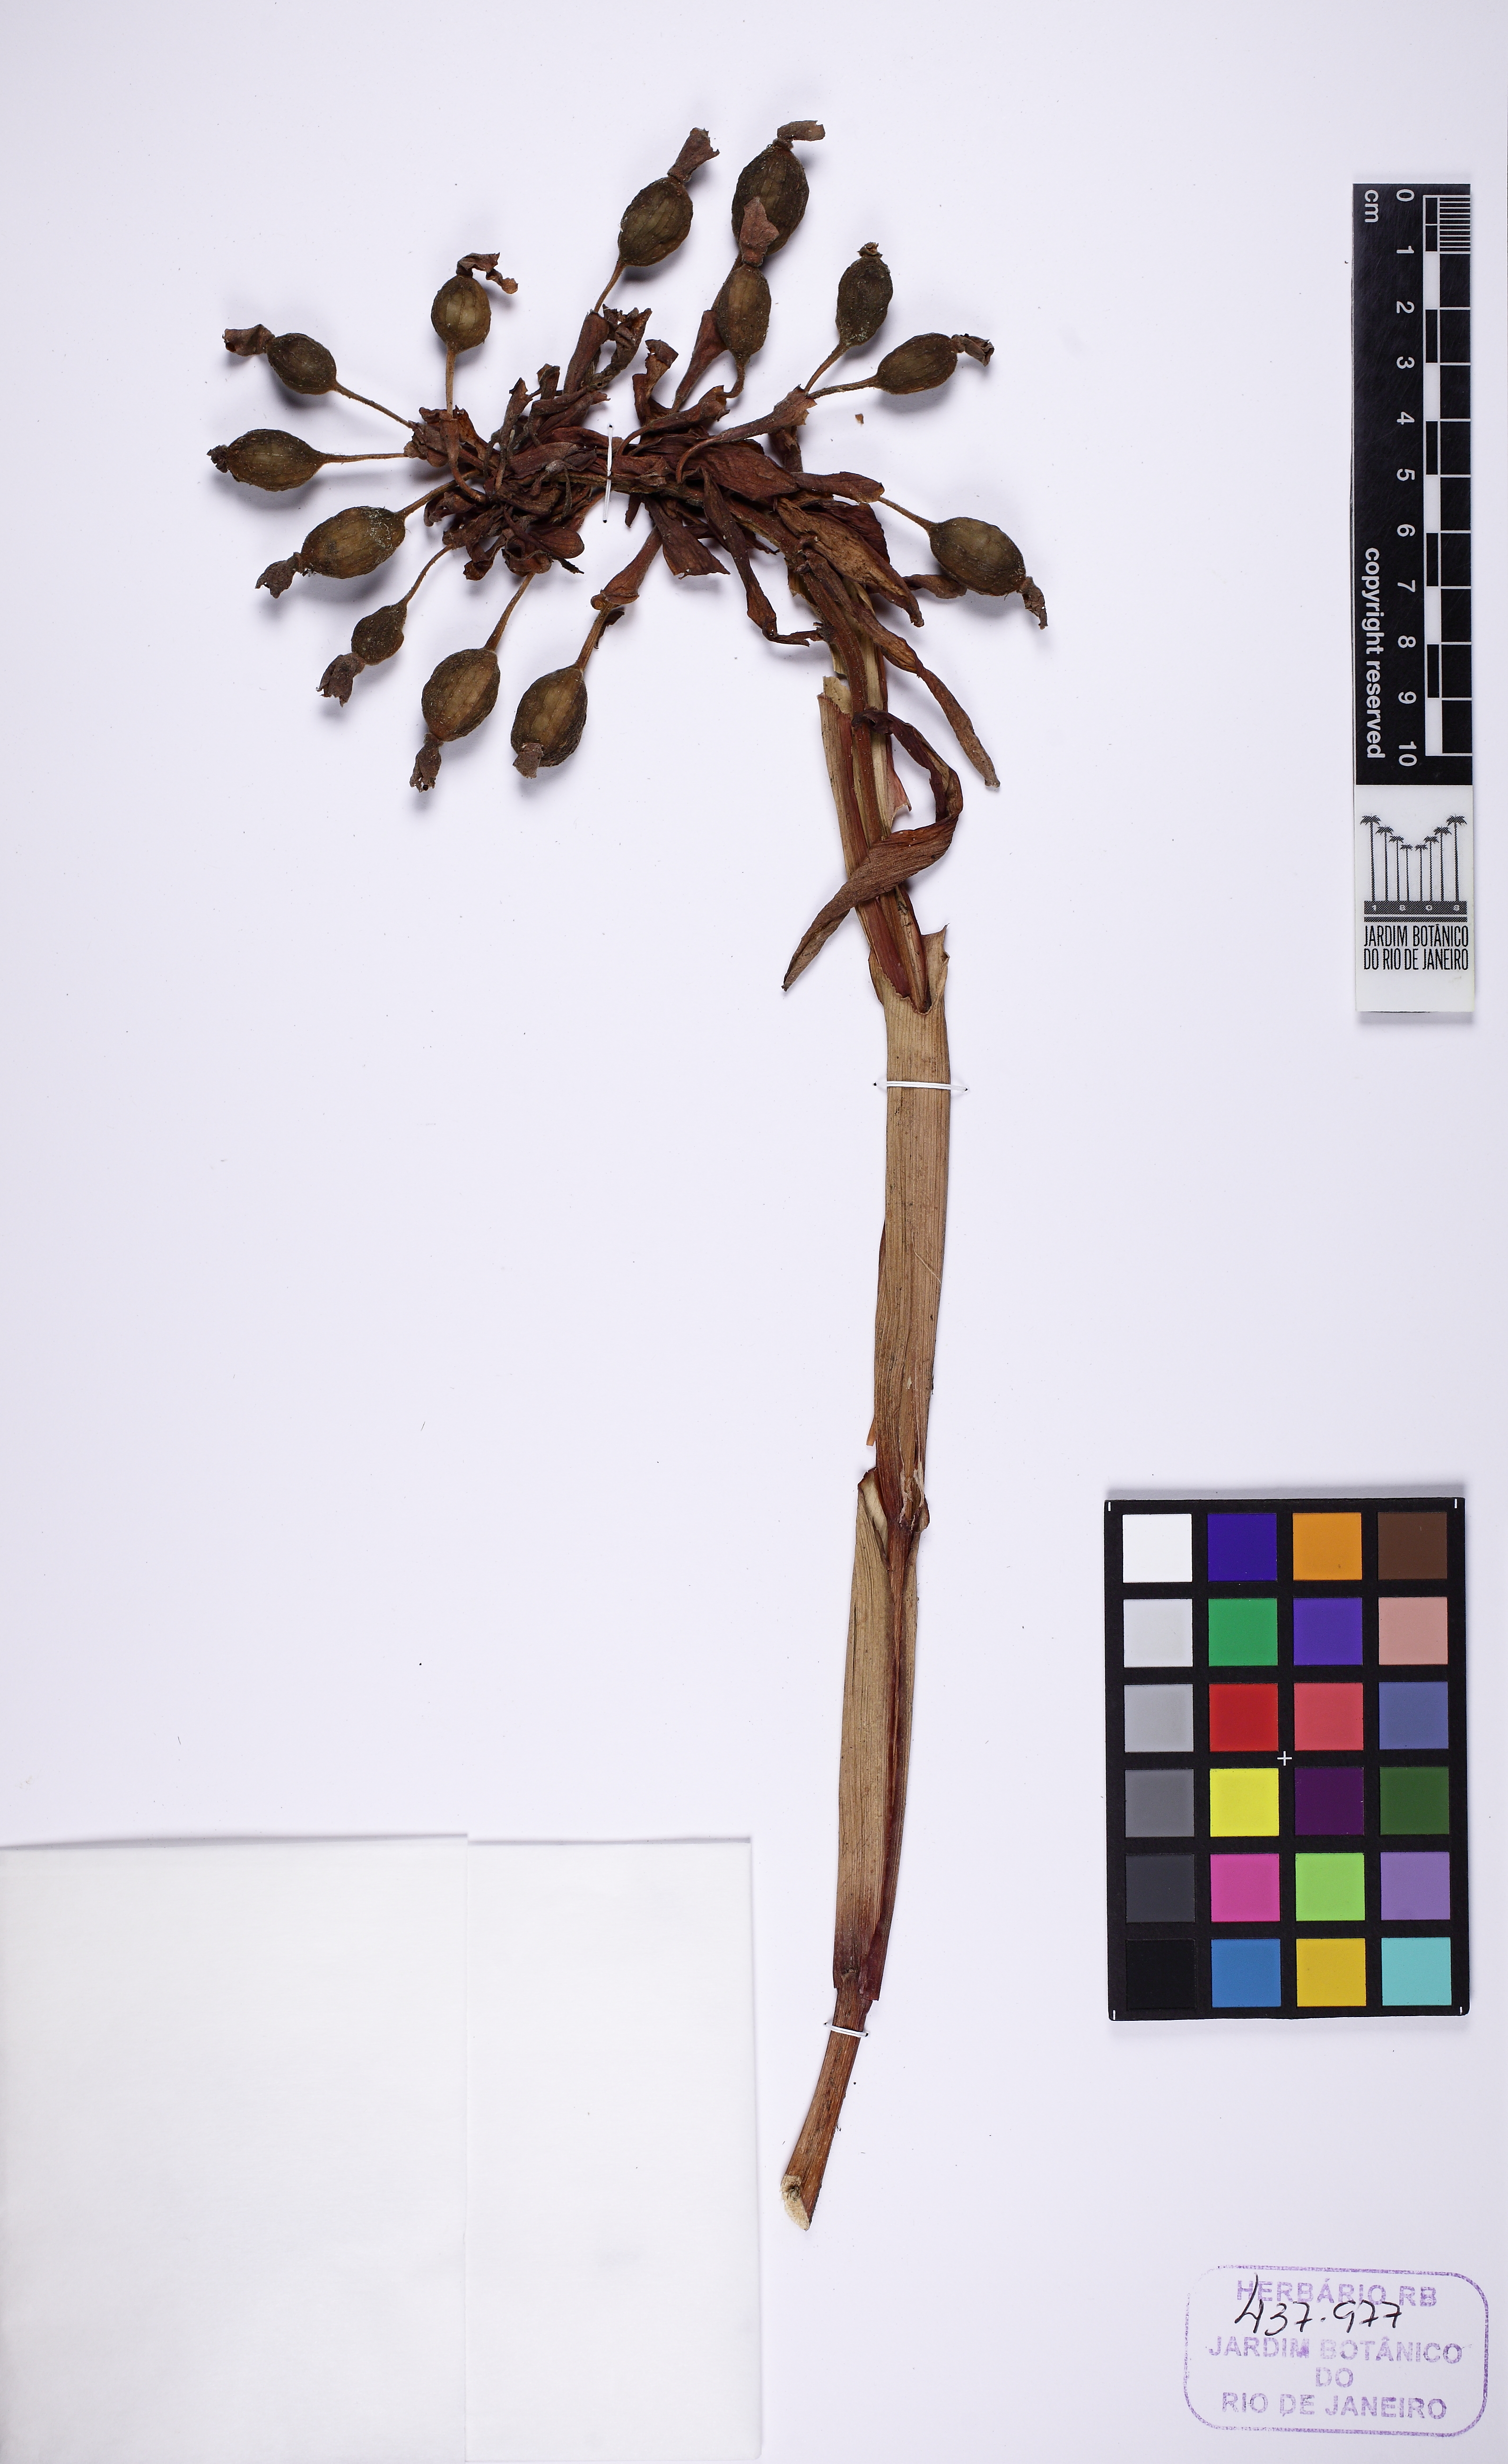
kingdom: Plantae
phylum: Tracheophyta
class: Liliopsida
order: Zingiberales
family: Zingiberaceae
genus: Renealmia
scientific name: Renealmia chrysotricha
